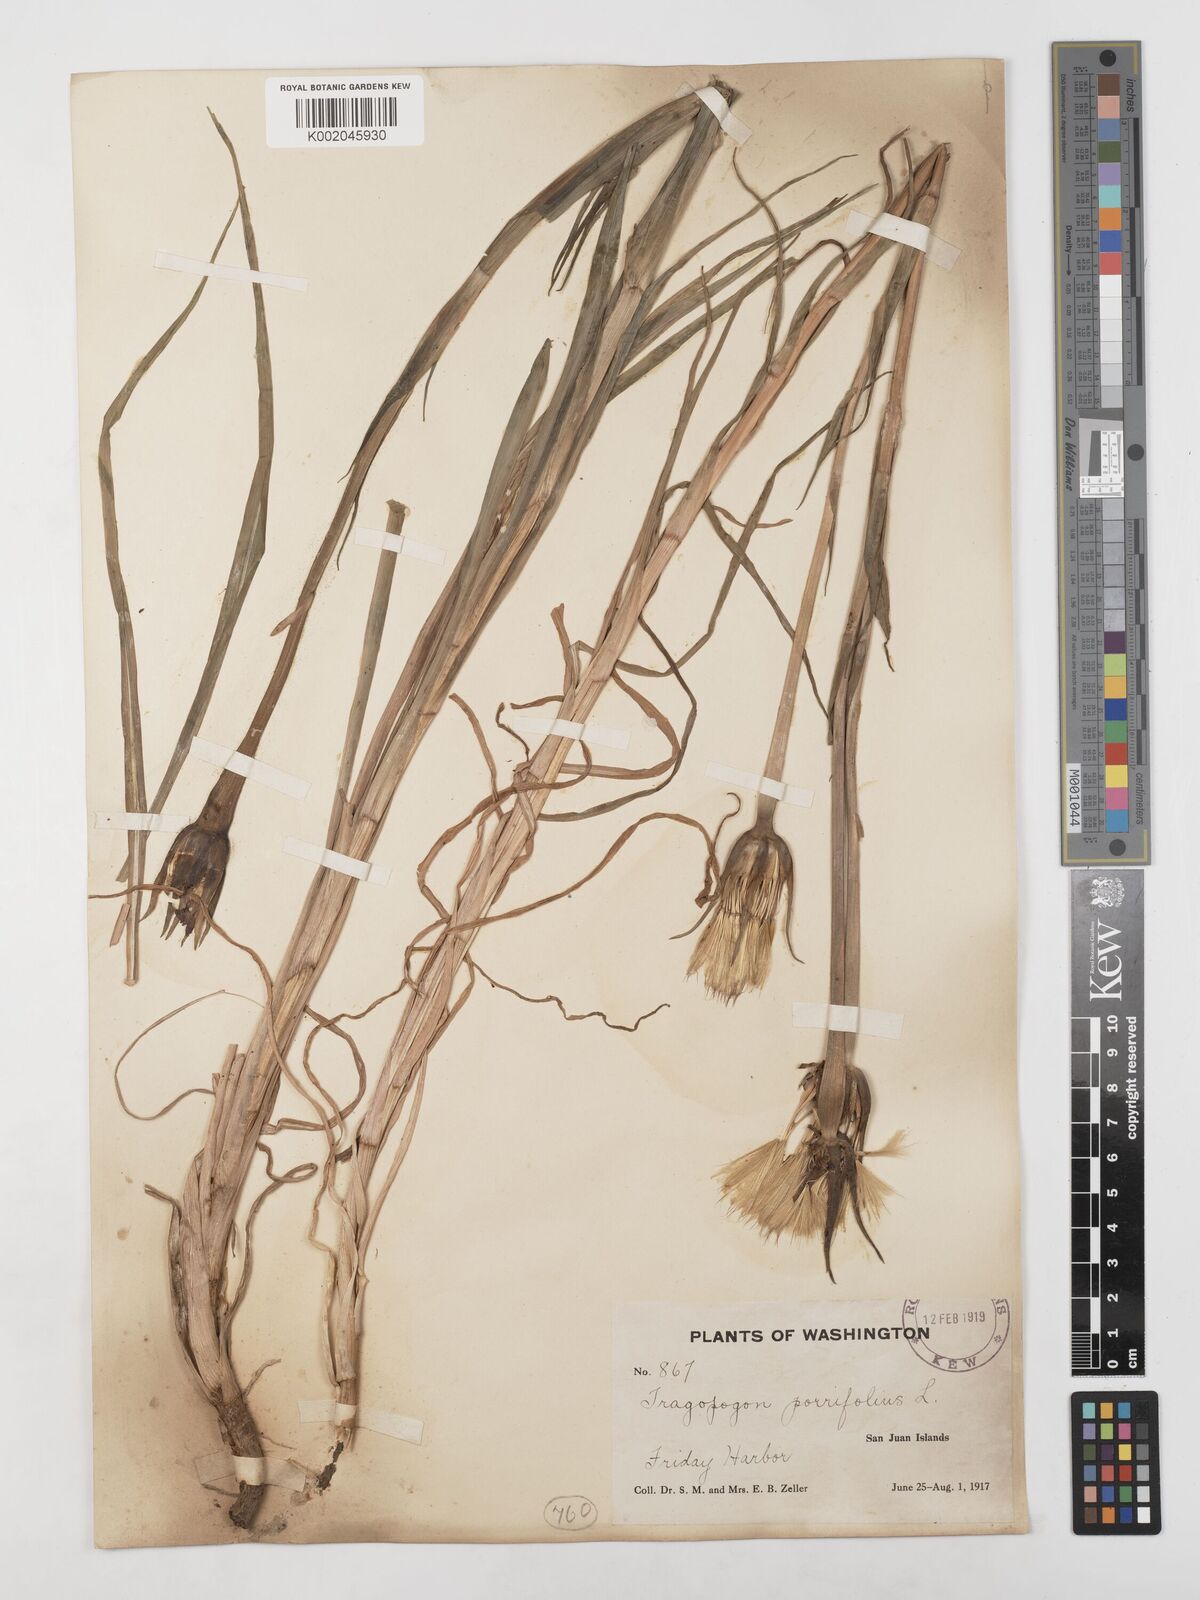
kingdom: Plantae
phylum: Tracheophyta
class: Magnoliopsida
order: Asterales
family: Asteraceae
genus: Tragopogon
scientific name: Tragopogon porrifolius
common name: Salsify
